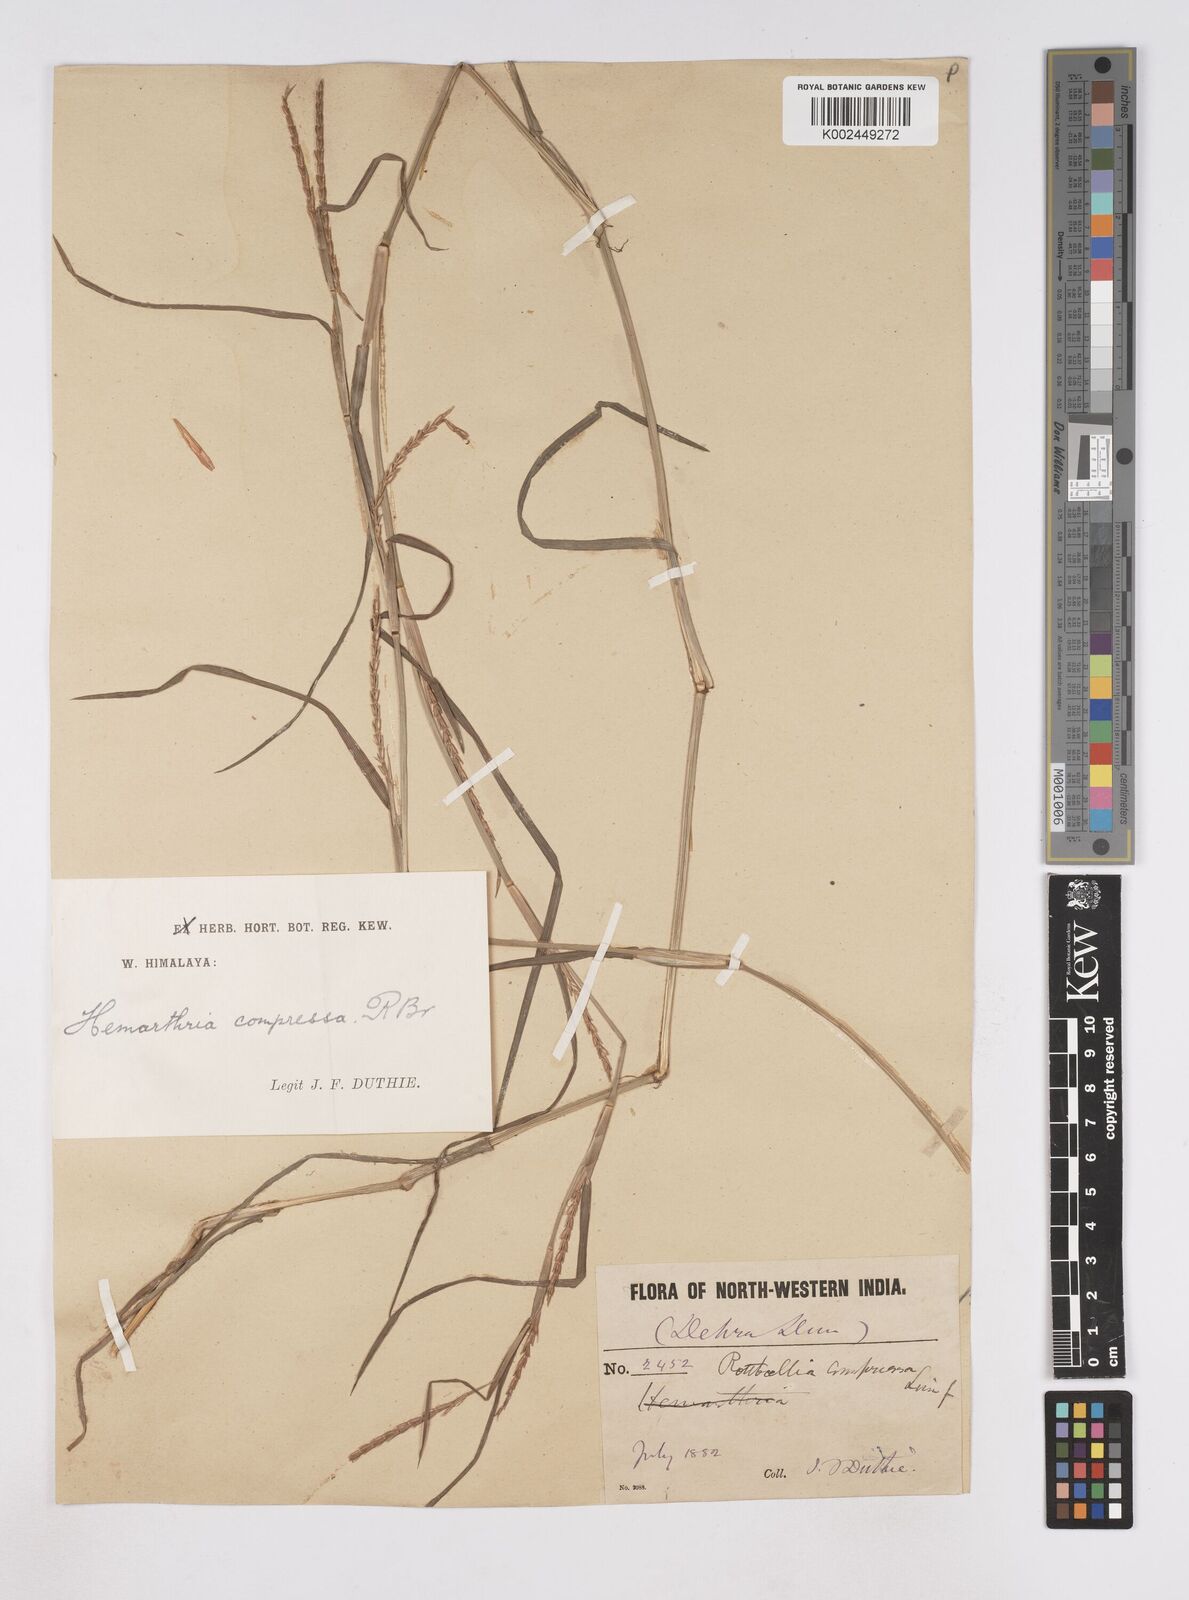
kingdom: Plantae
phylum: Tracheophyta
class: Liliopsida
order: Poales
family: Poaceae
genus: Hemarthria
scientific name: Hemarthria compressa
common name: Whip grass
